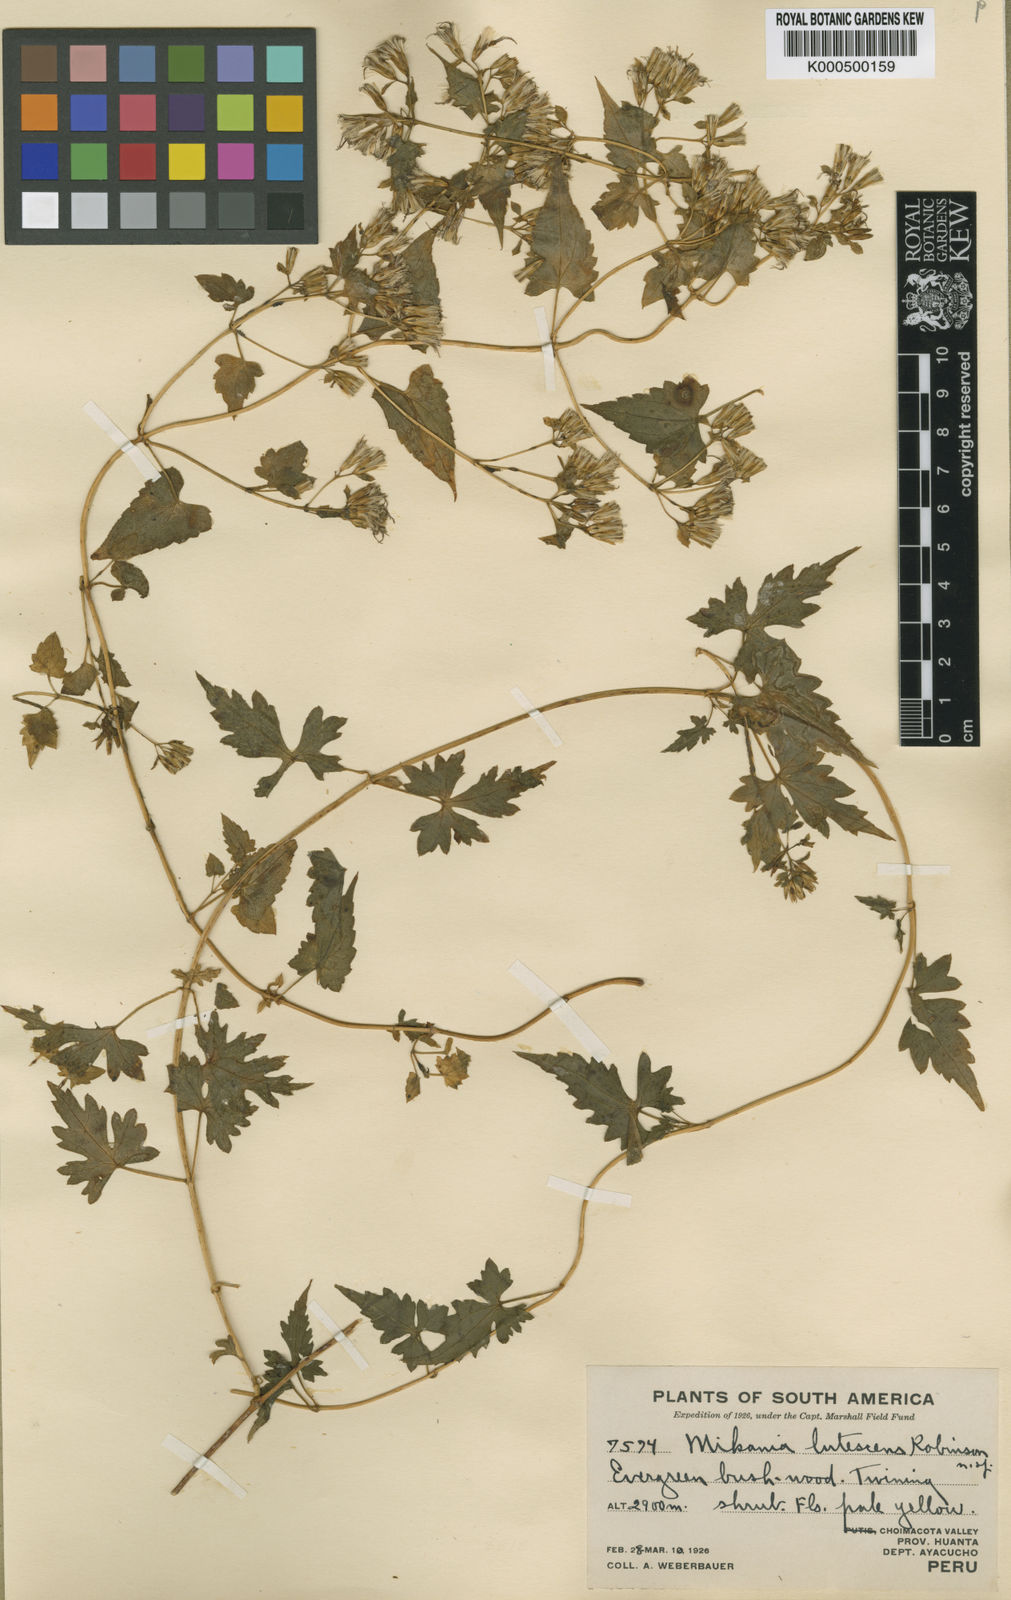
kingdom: Plantae
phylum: Tracheophyta
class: Magnoliopsida
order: Asterales
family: Asteraceae
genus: Mikania
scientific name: Mikania lutescens
